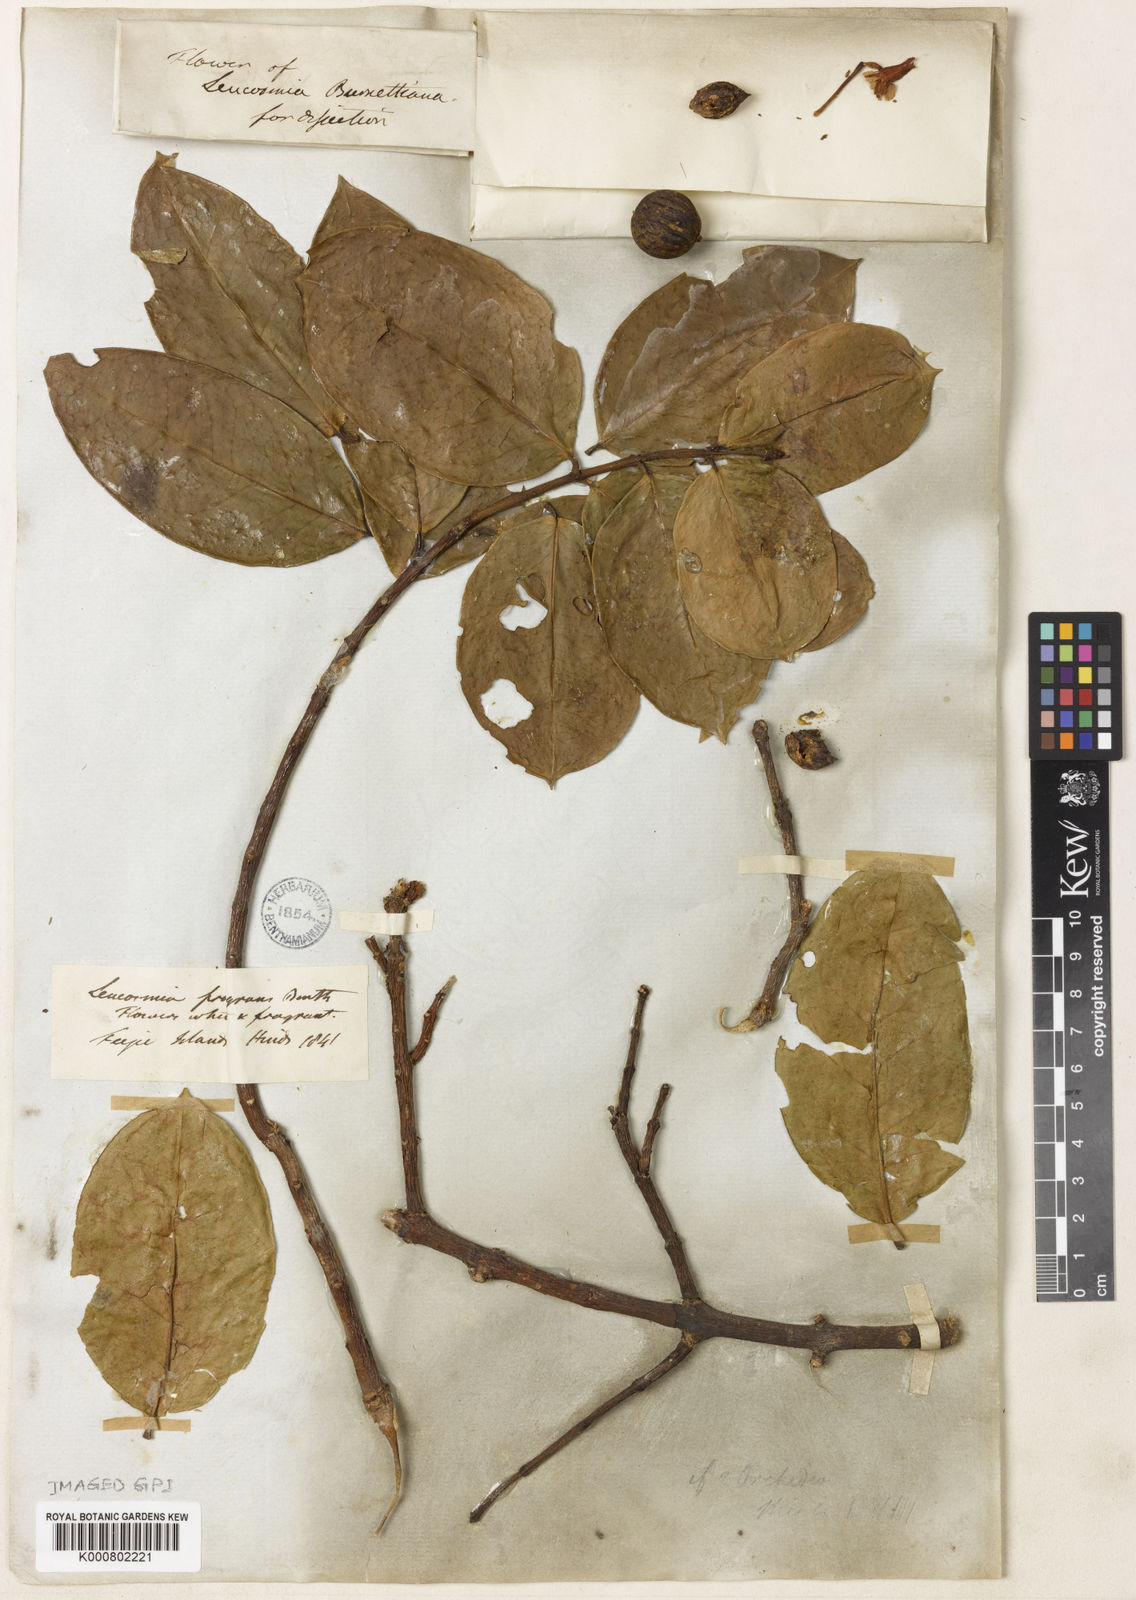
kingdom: Plantae
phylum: Tracheophyta
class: Magnoliopsida
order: Malvales
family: Thymelaeaceae
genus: Phaleria
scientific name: Phaleria disperma
